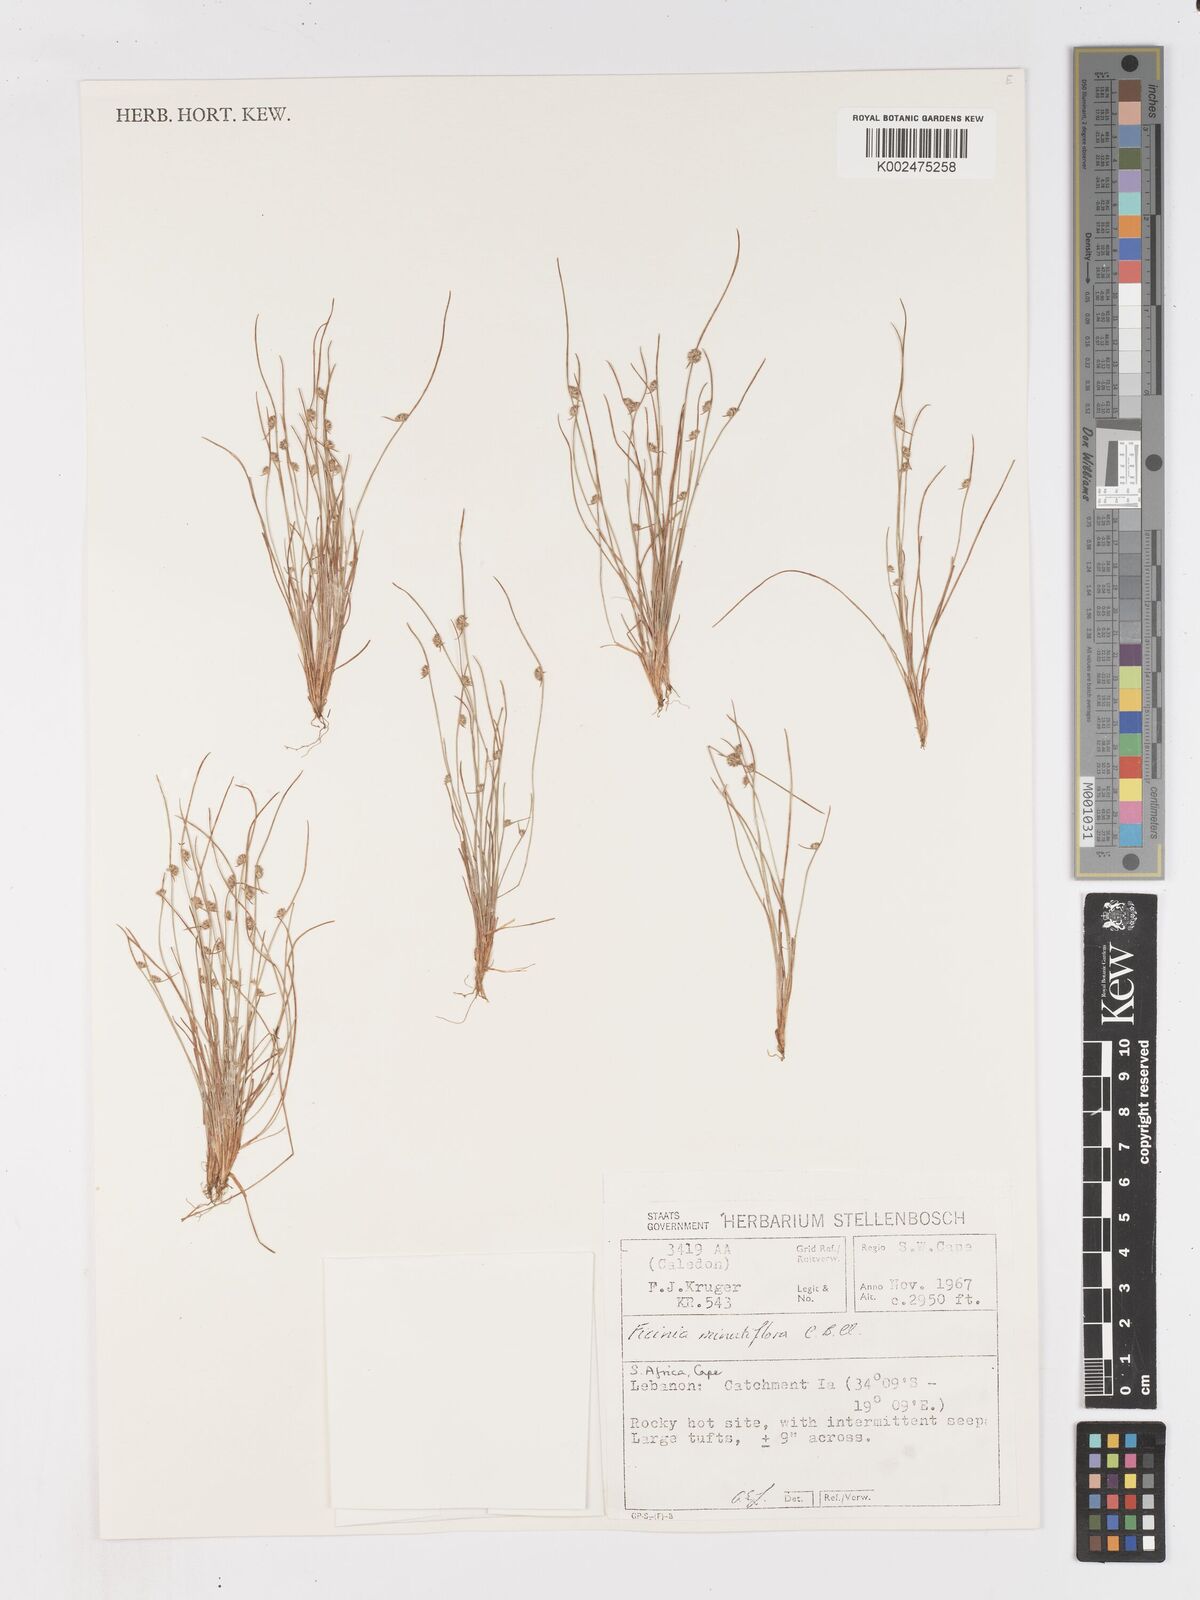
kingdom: Plantae
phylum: Tracheophyta
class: Liliopsida
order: Poales
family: Cyperaceae
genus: Ficinia
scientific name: Ficinia minutiflora
